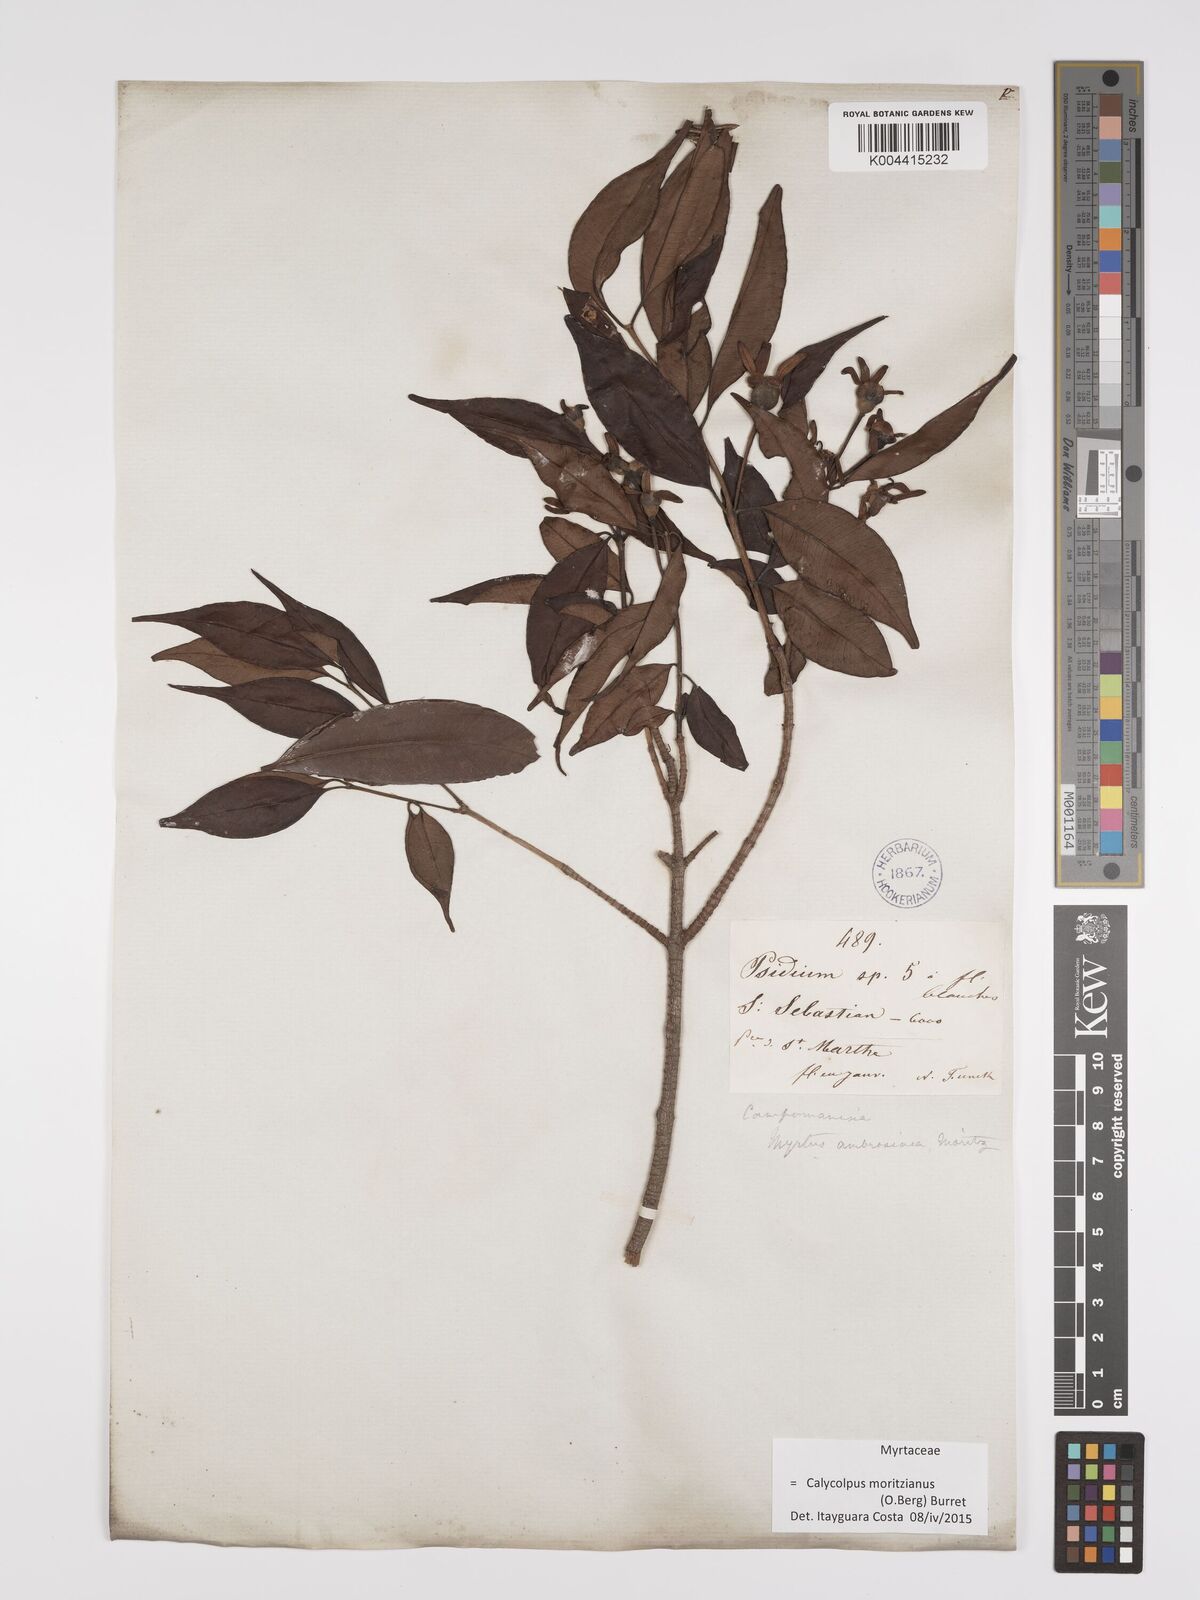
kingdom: Plantae
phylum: Tracheophyta
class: Magnoliopsida
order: Myrtales
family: Myrtaceae
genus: Calycolpus
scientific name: Calycolpus moritzianus
